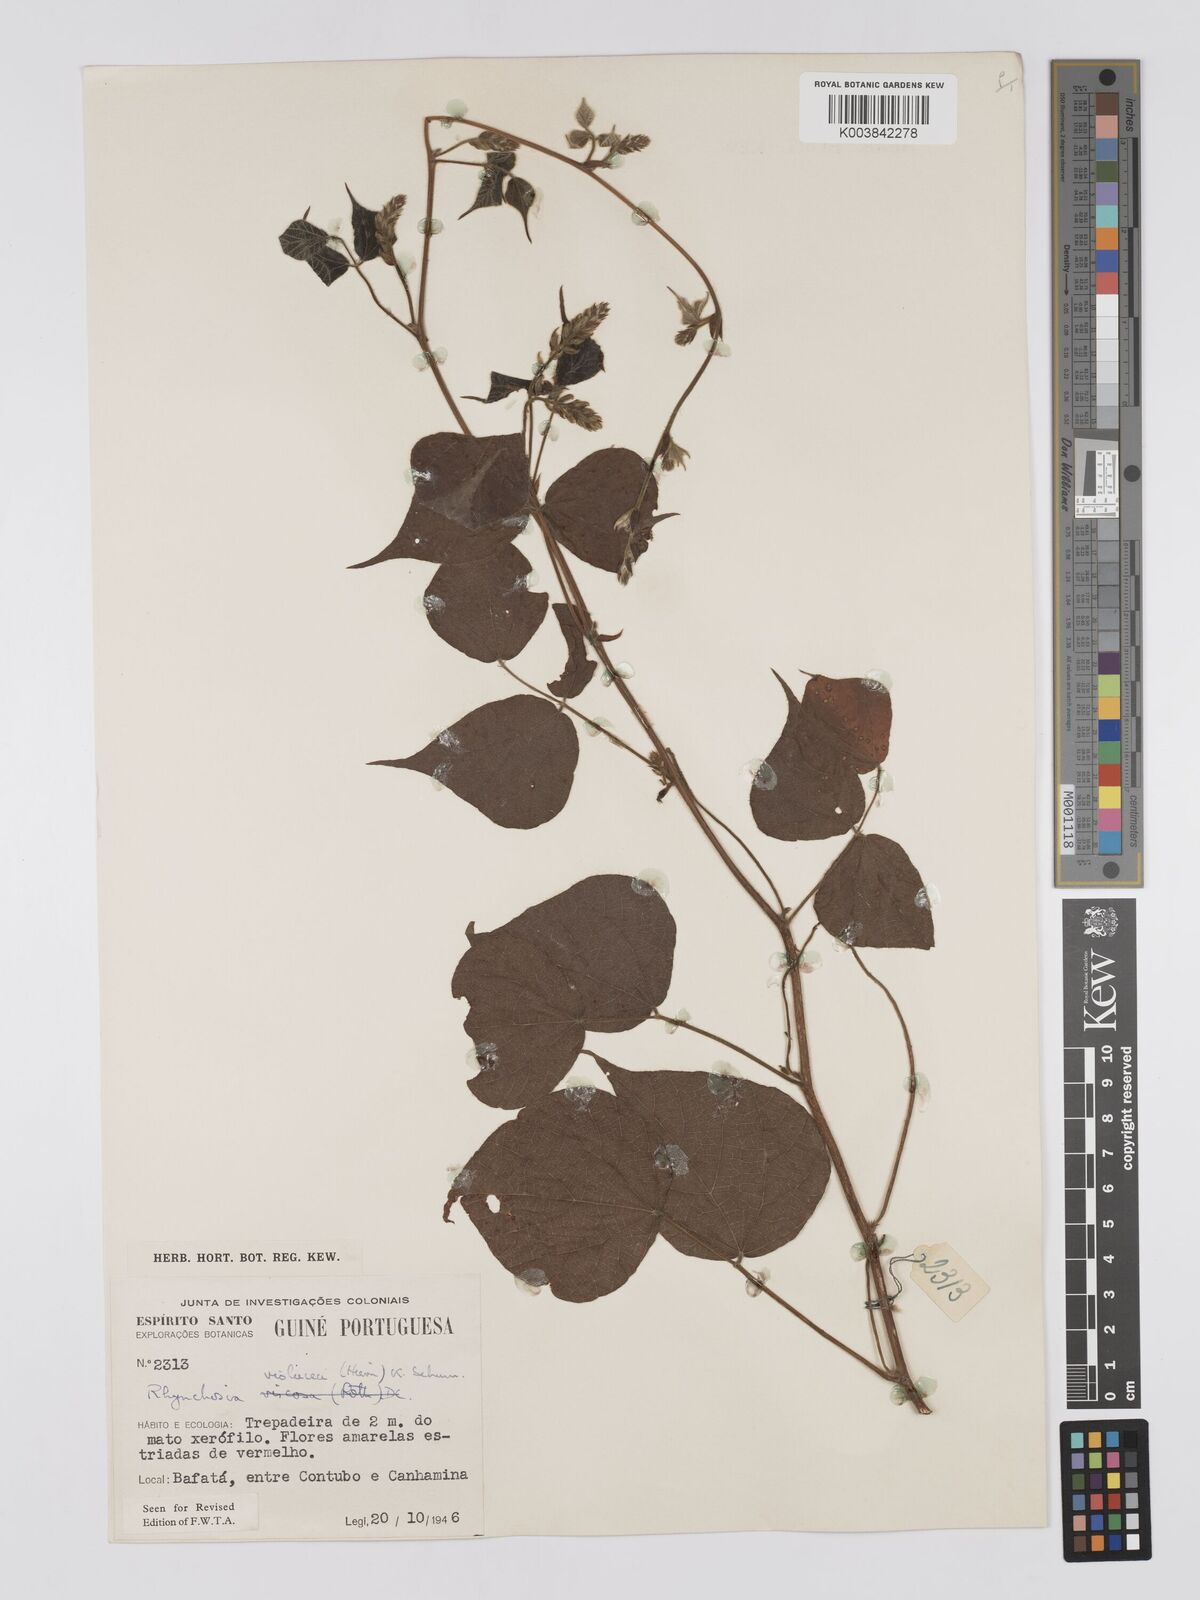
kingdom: Plantae
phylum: Tracheophyta
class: Magnoliopsida
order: Fabales
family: Fabaceae
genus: Rhynchosia
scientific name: Rhynchosia viscosa
